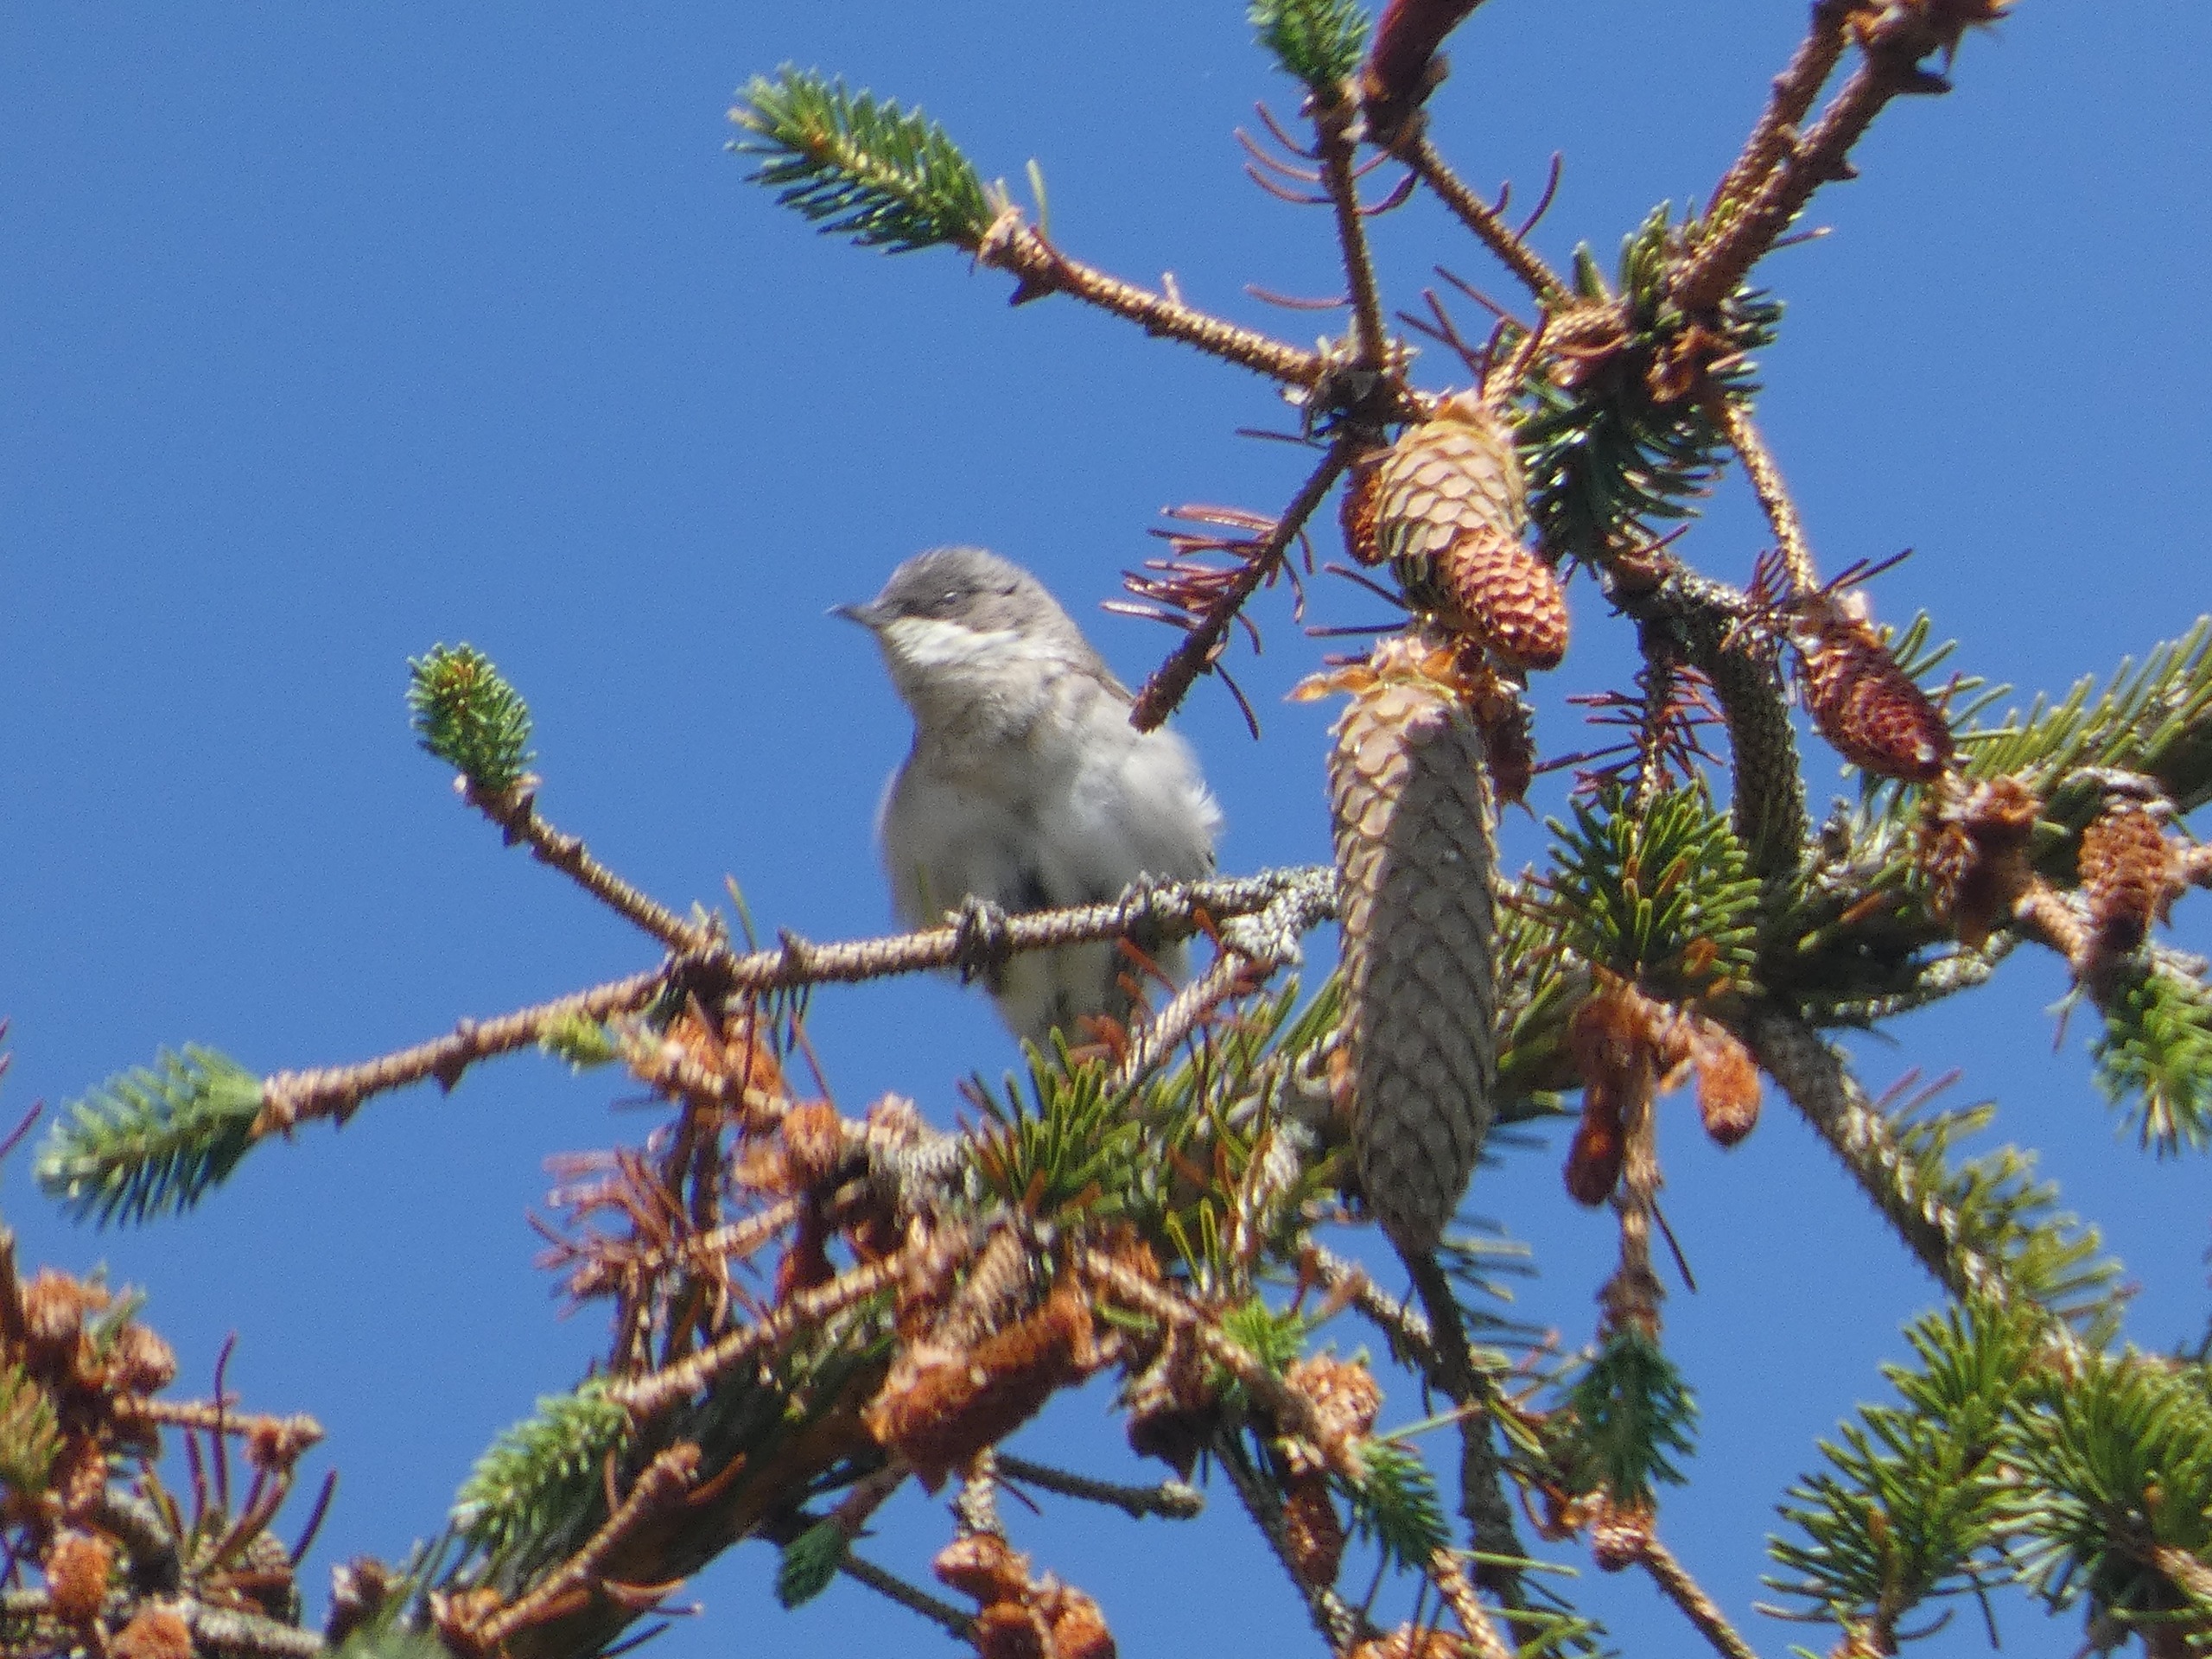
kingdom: Animalia
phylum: Chordata
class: Aves
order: Passeriformes
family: Sylviidae
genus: Sylvia
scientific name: Sylvia curruca
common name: Gærdesanger
